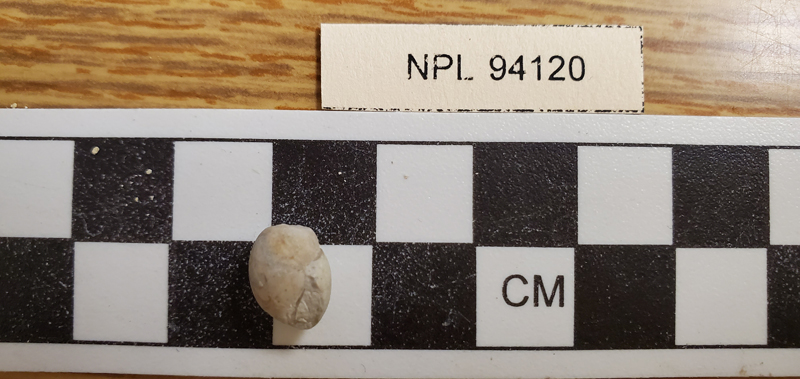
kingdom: Animalia
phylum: Mollusca
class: Gastropoda
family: Cylindrobullinidae
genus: Globiconcha
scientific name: Globiconcha formosa
